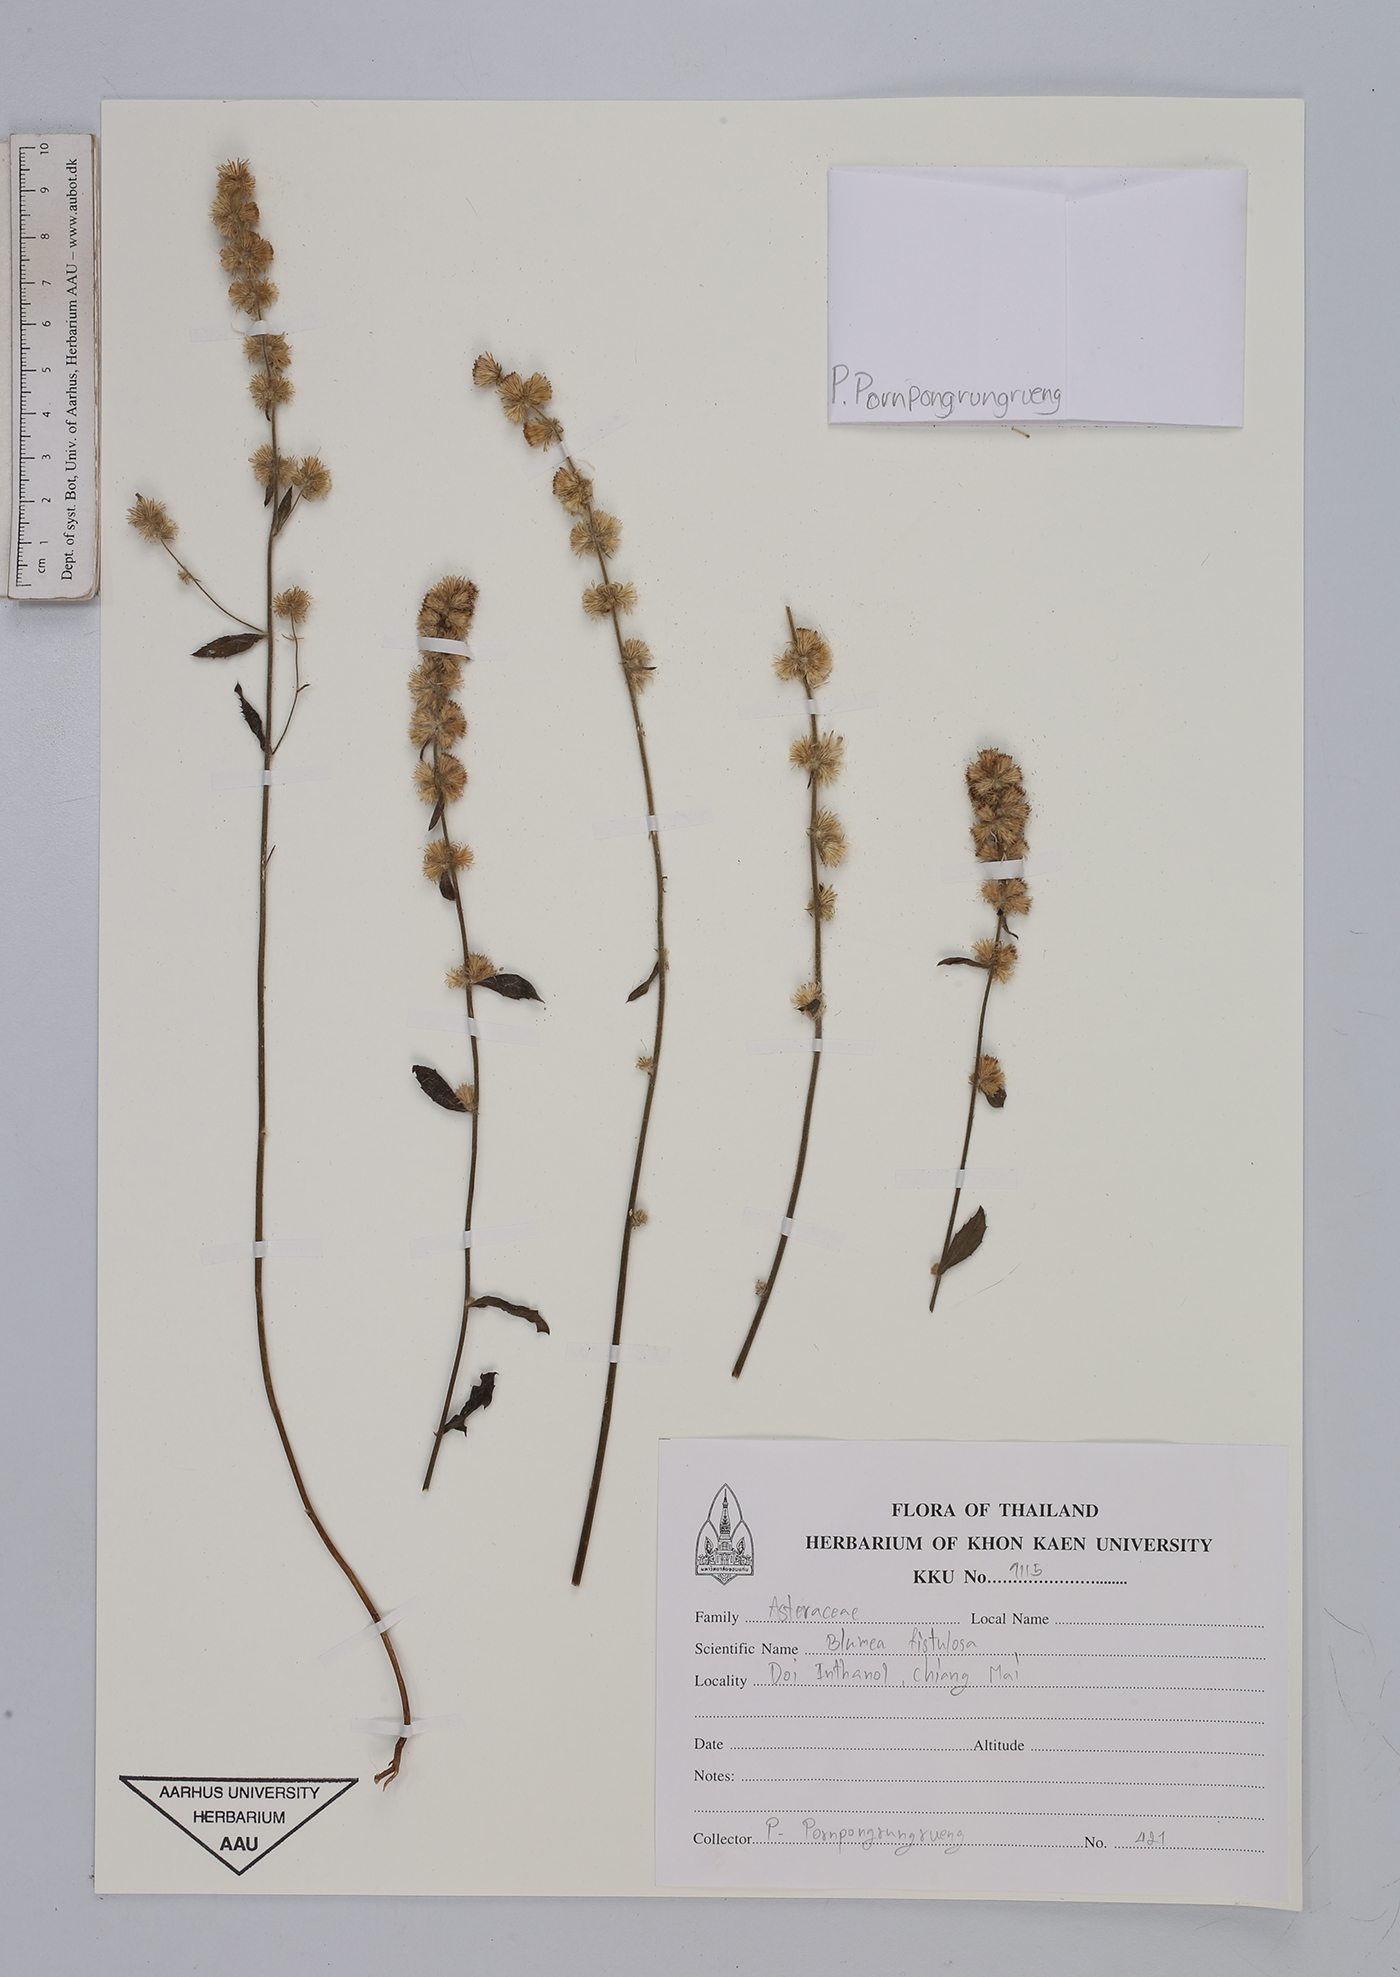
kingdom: Plantae
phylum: Tracheophyta
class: Magnoliopsida
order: Asterales
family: Asteraceae
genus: Blumea
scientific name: Blumea fistulosa
